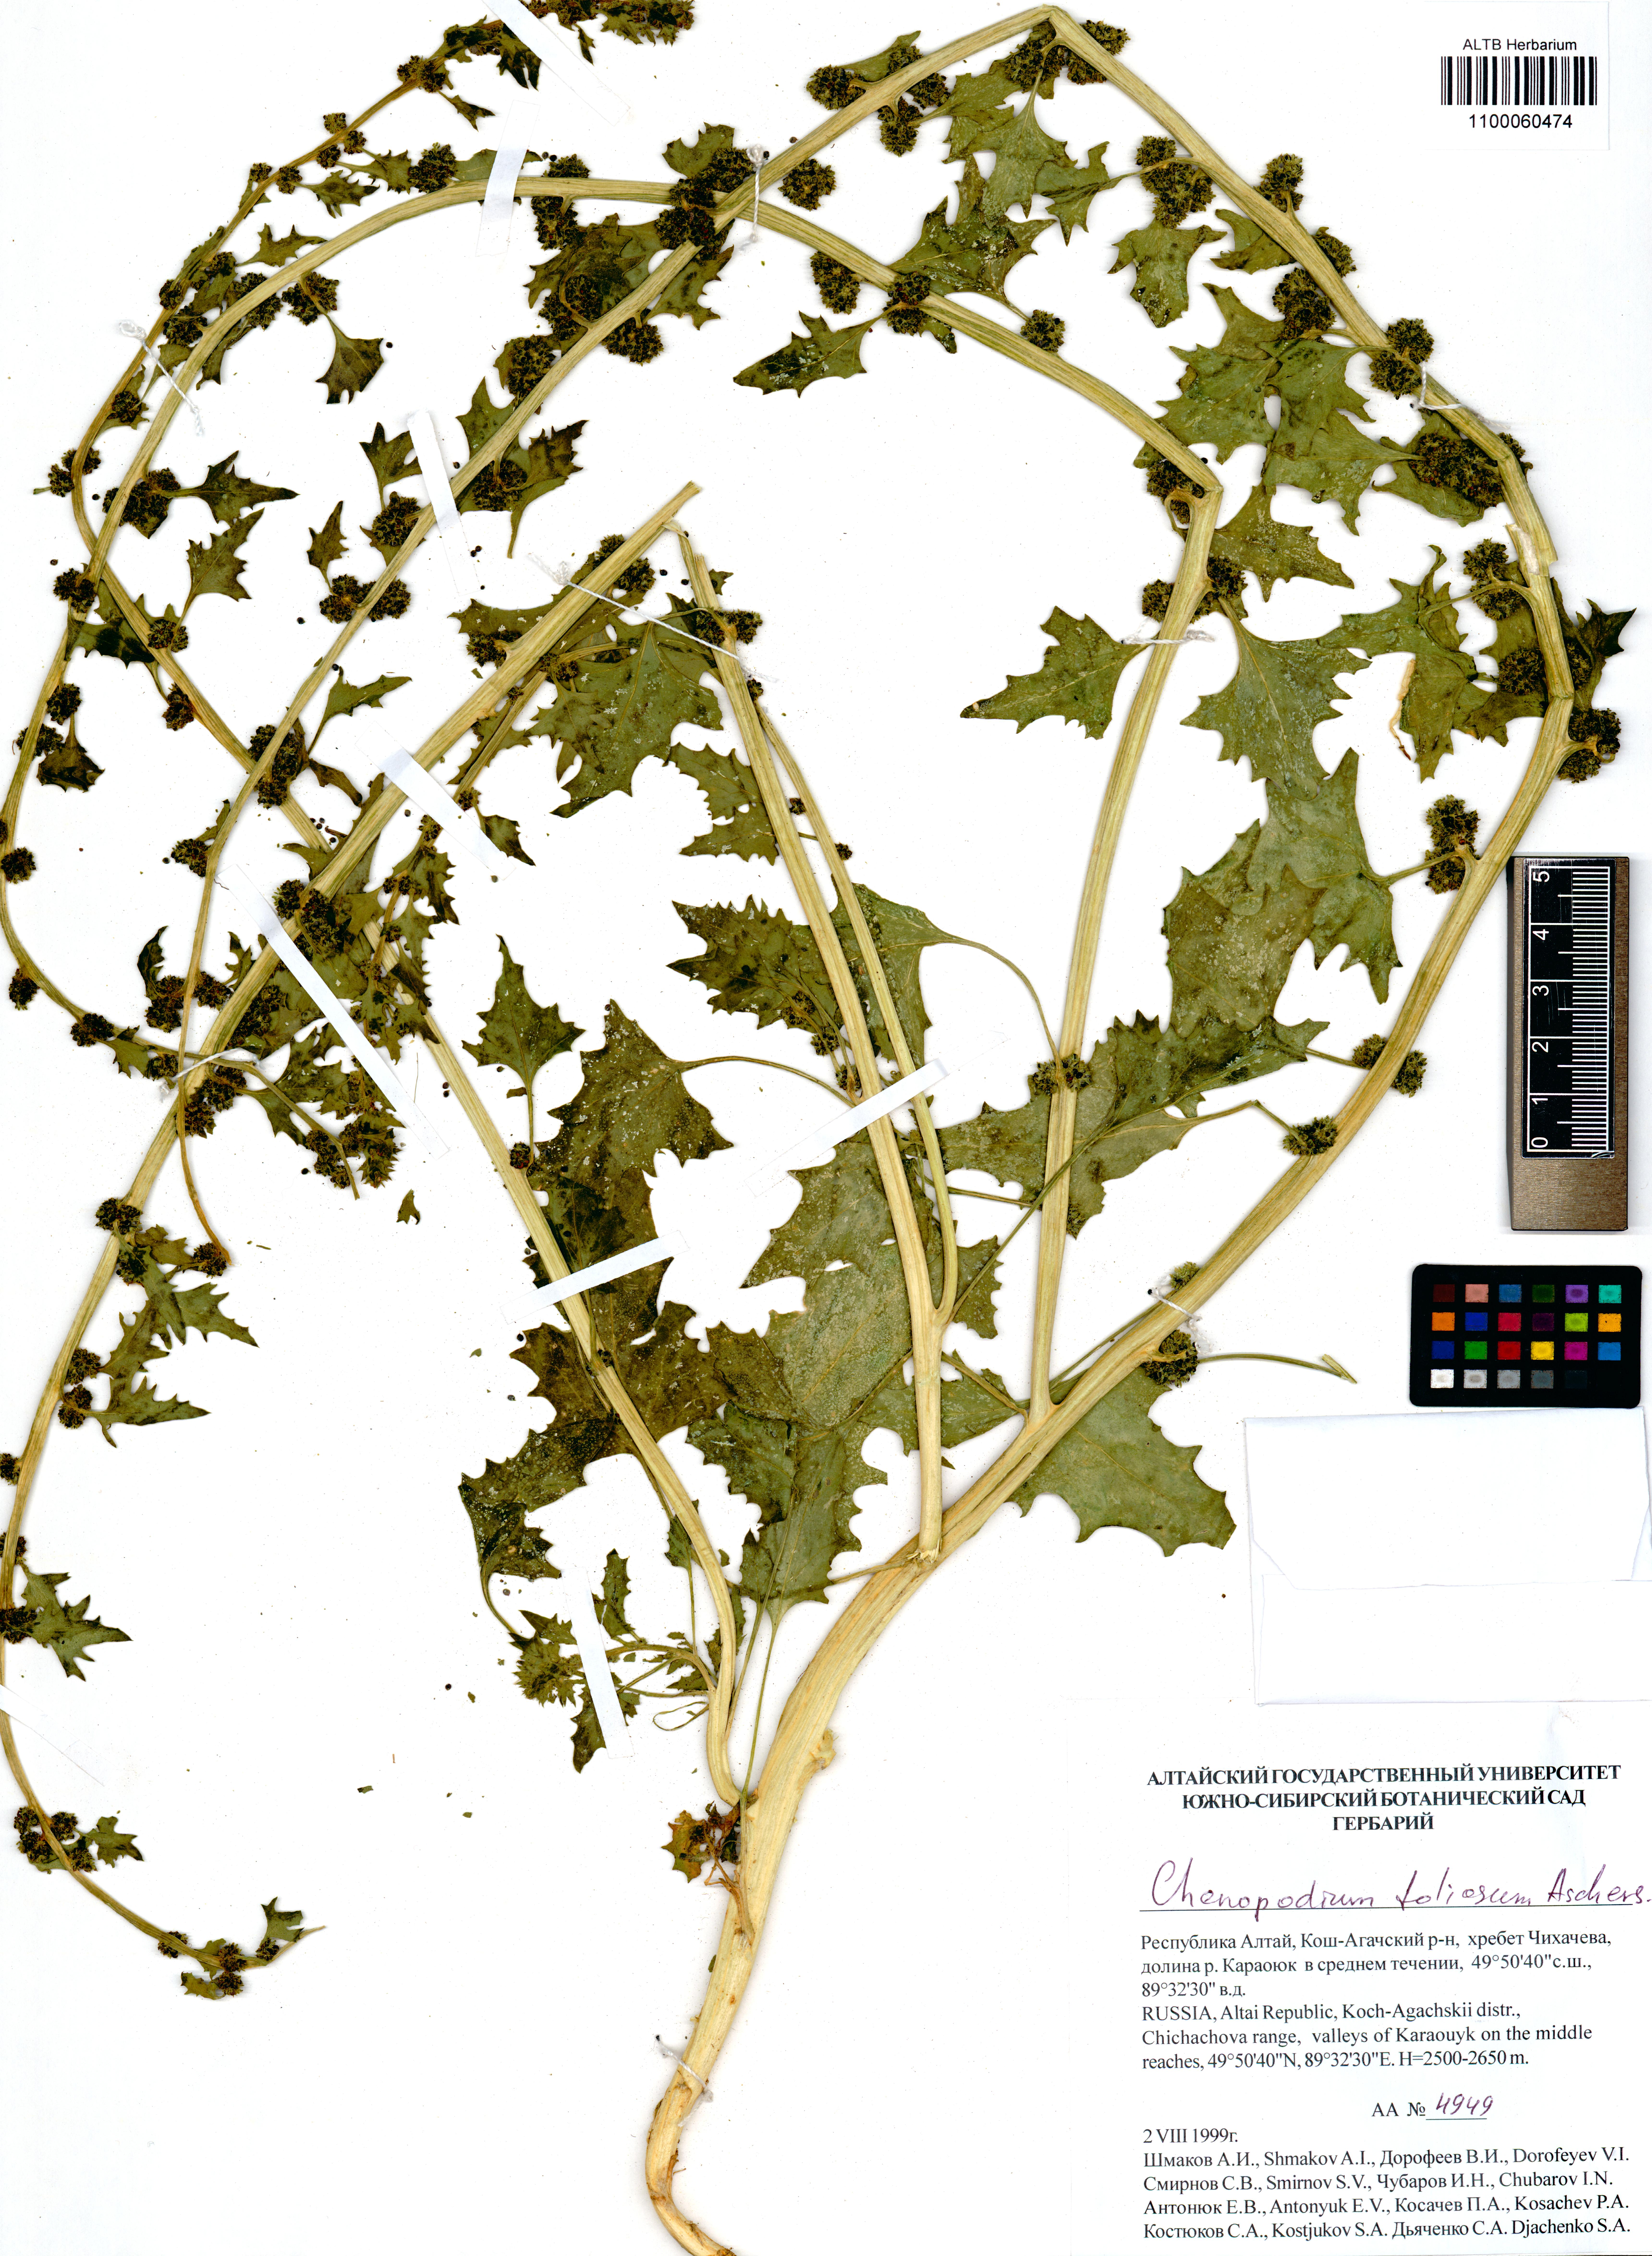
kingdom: Plantae
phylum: Tracheophyta
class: Magnoliopsida
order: Caryophyllales
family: Amaranthaceae
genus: Blitum
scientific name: Blitum virgatum
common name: Strawberry goosefoot
